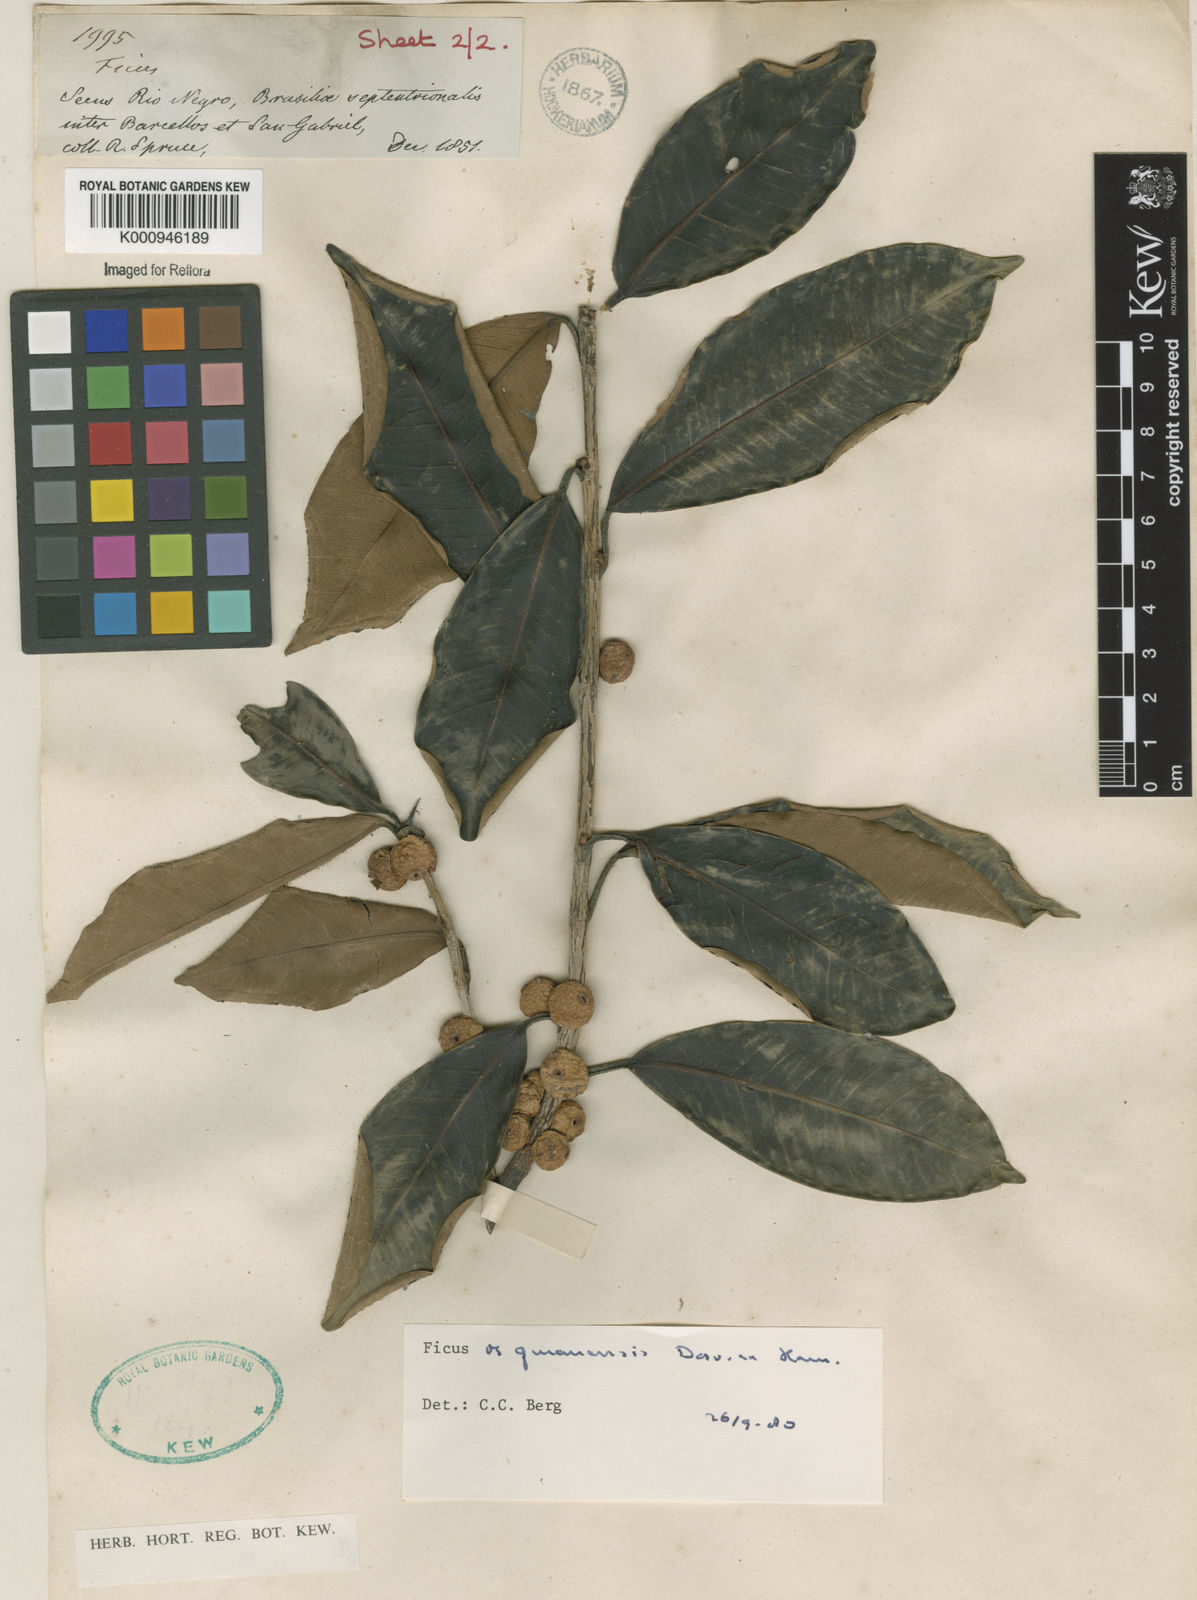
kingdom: Plantae
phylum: Tracheophyta
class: Magnoliopsida
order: Rosales
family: Moraceae
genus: Ficus
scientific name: Ficus americana
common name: Jamaican cherry fig
